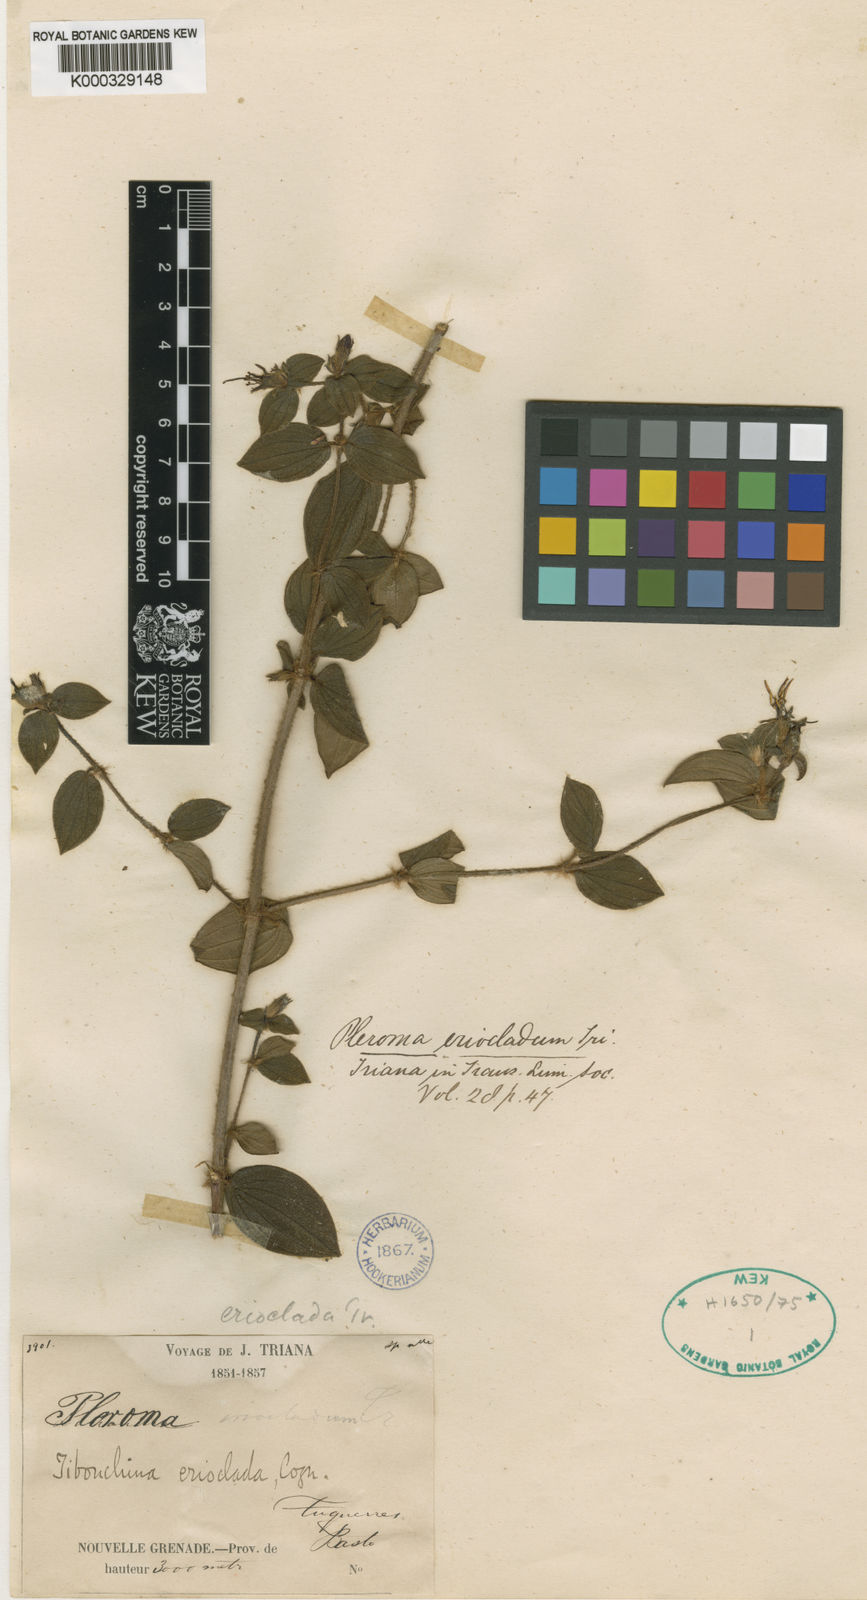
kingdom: Plantae
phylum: Tracheophyta
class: Magnoliopsida
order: Myrtales
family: Melastomataceae
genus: Chaetogastra
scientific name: Chaetogastra erioclada
